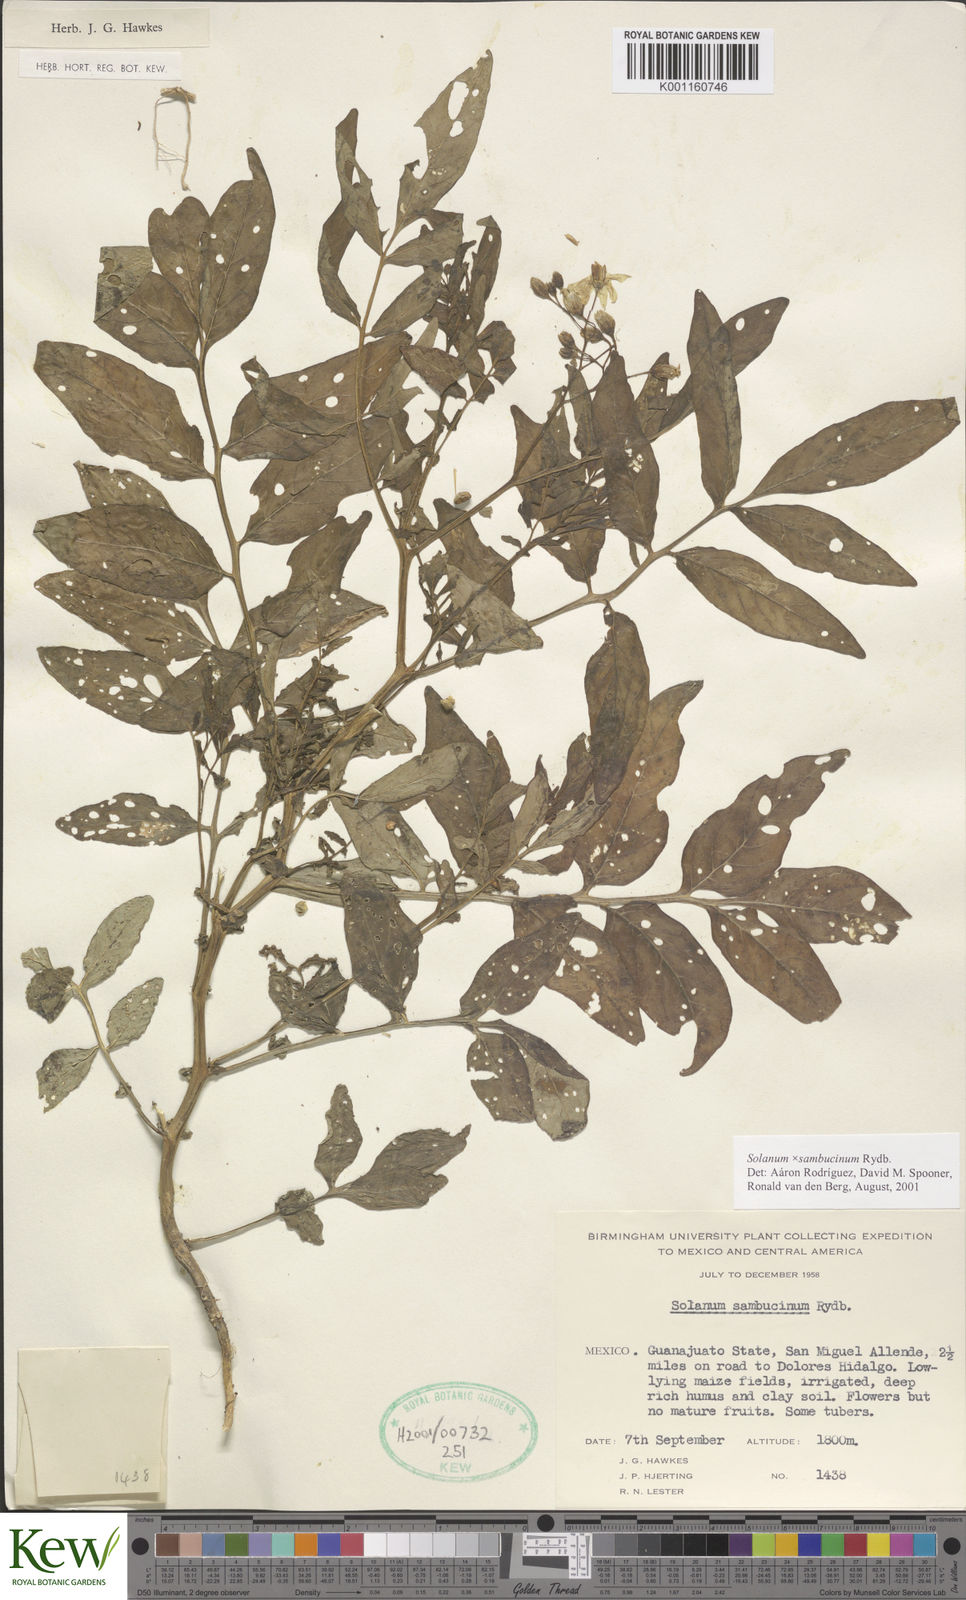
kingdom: Plantae
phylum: Tracheophyta
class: Magnoliopsida
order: Solanales
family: Solanaceae
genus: Solanum
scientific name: Solanum sambucinum
